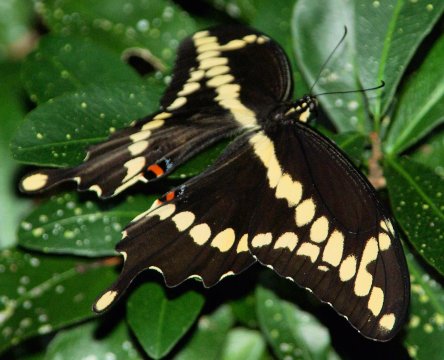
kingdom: Animalia
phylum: Arthropoda
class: Insecta
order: Lepidoptera
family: Papilionidae
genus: Papilio
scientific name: Papilio cresphontes
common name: Eastern Giant Swallowtail
